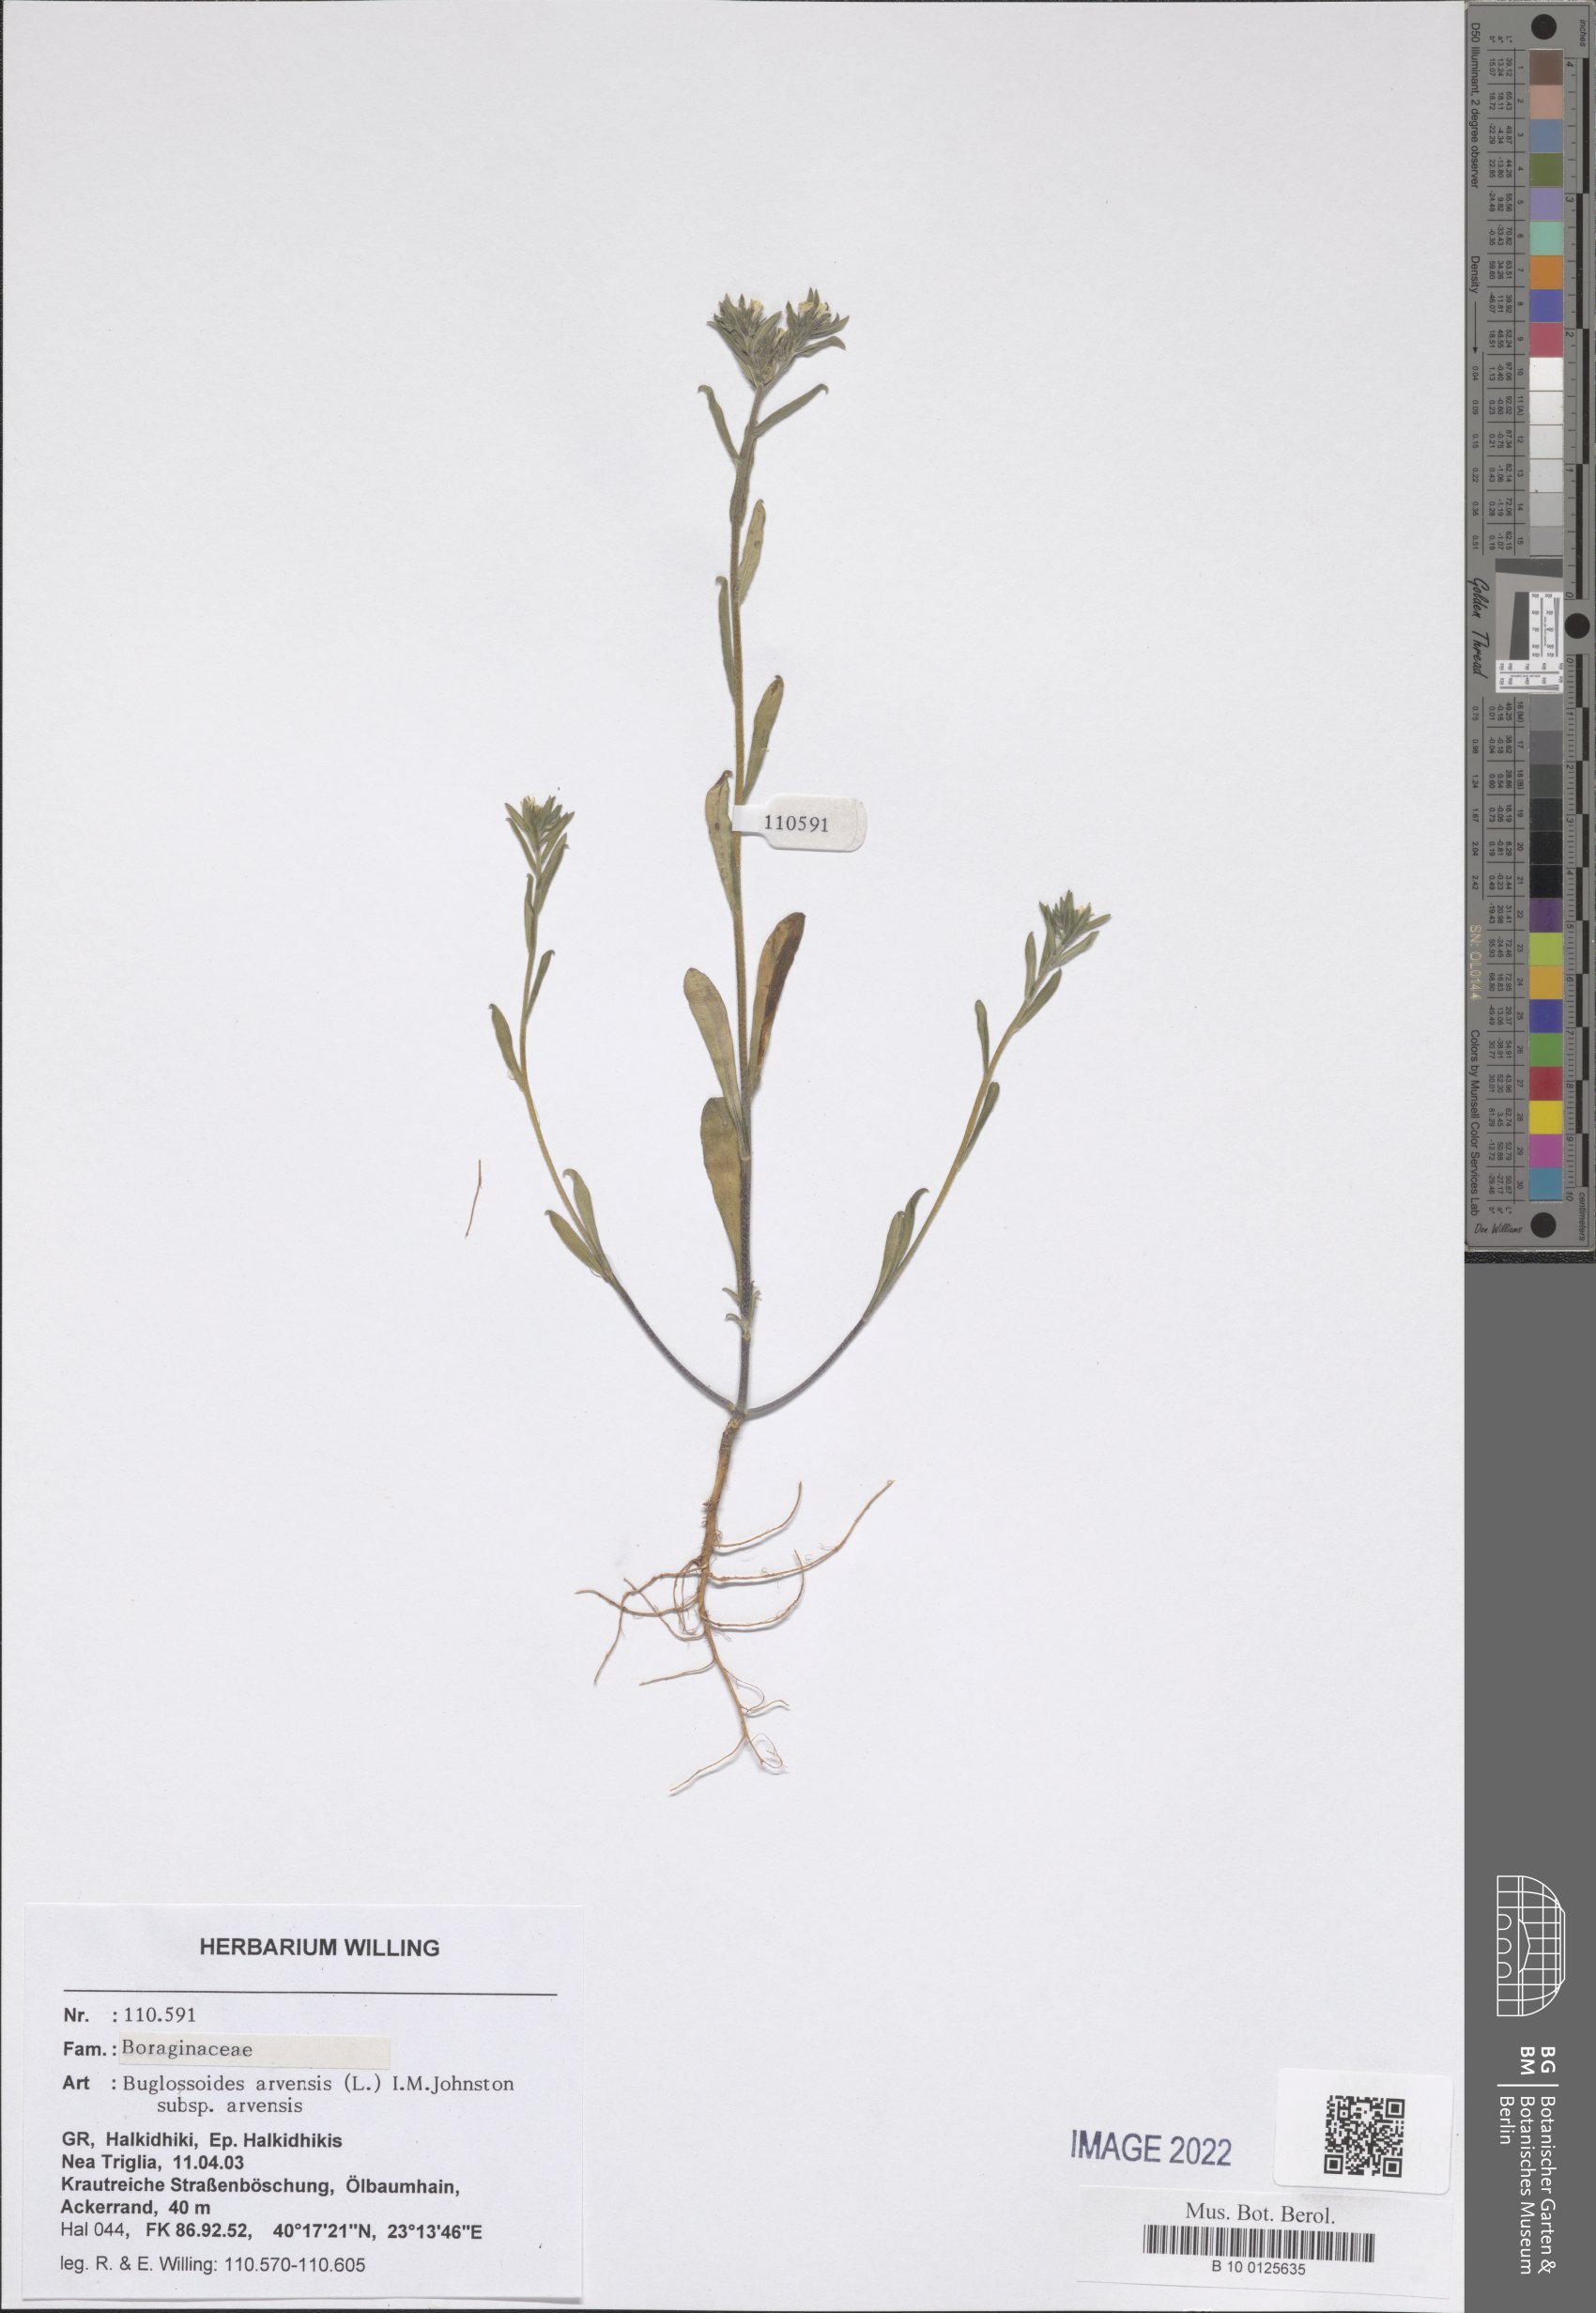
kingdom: Plantae
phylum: Tracheophyta
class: Magnoliopsida
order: Boraginales
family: Boraginaceae
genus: Buglossoides
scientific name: Buglossoides arvensis
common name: Corn gromwell
